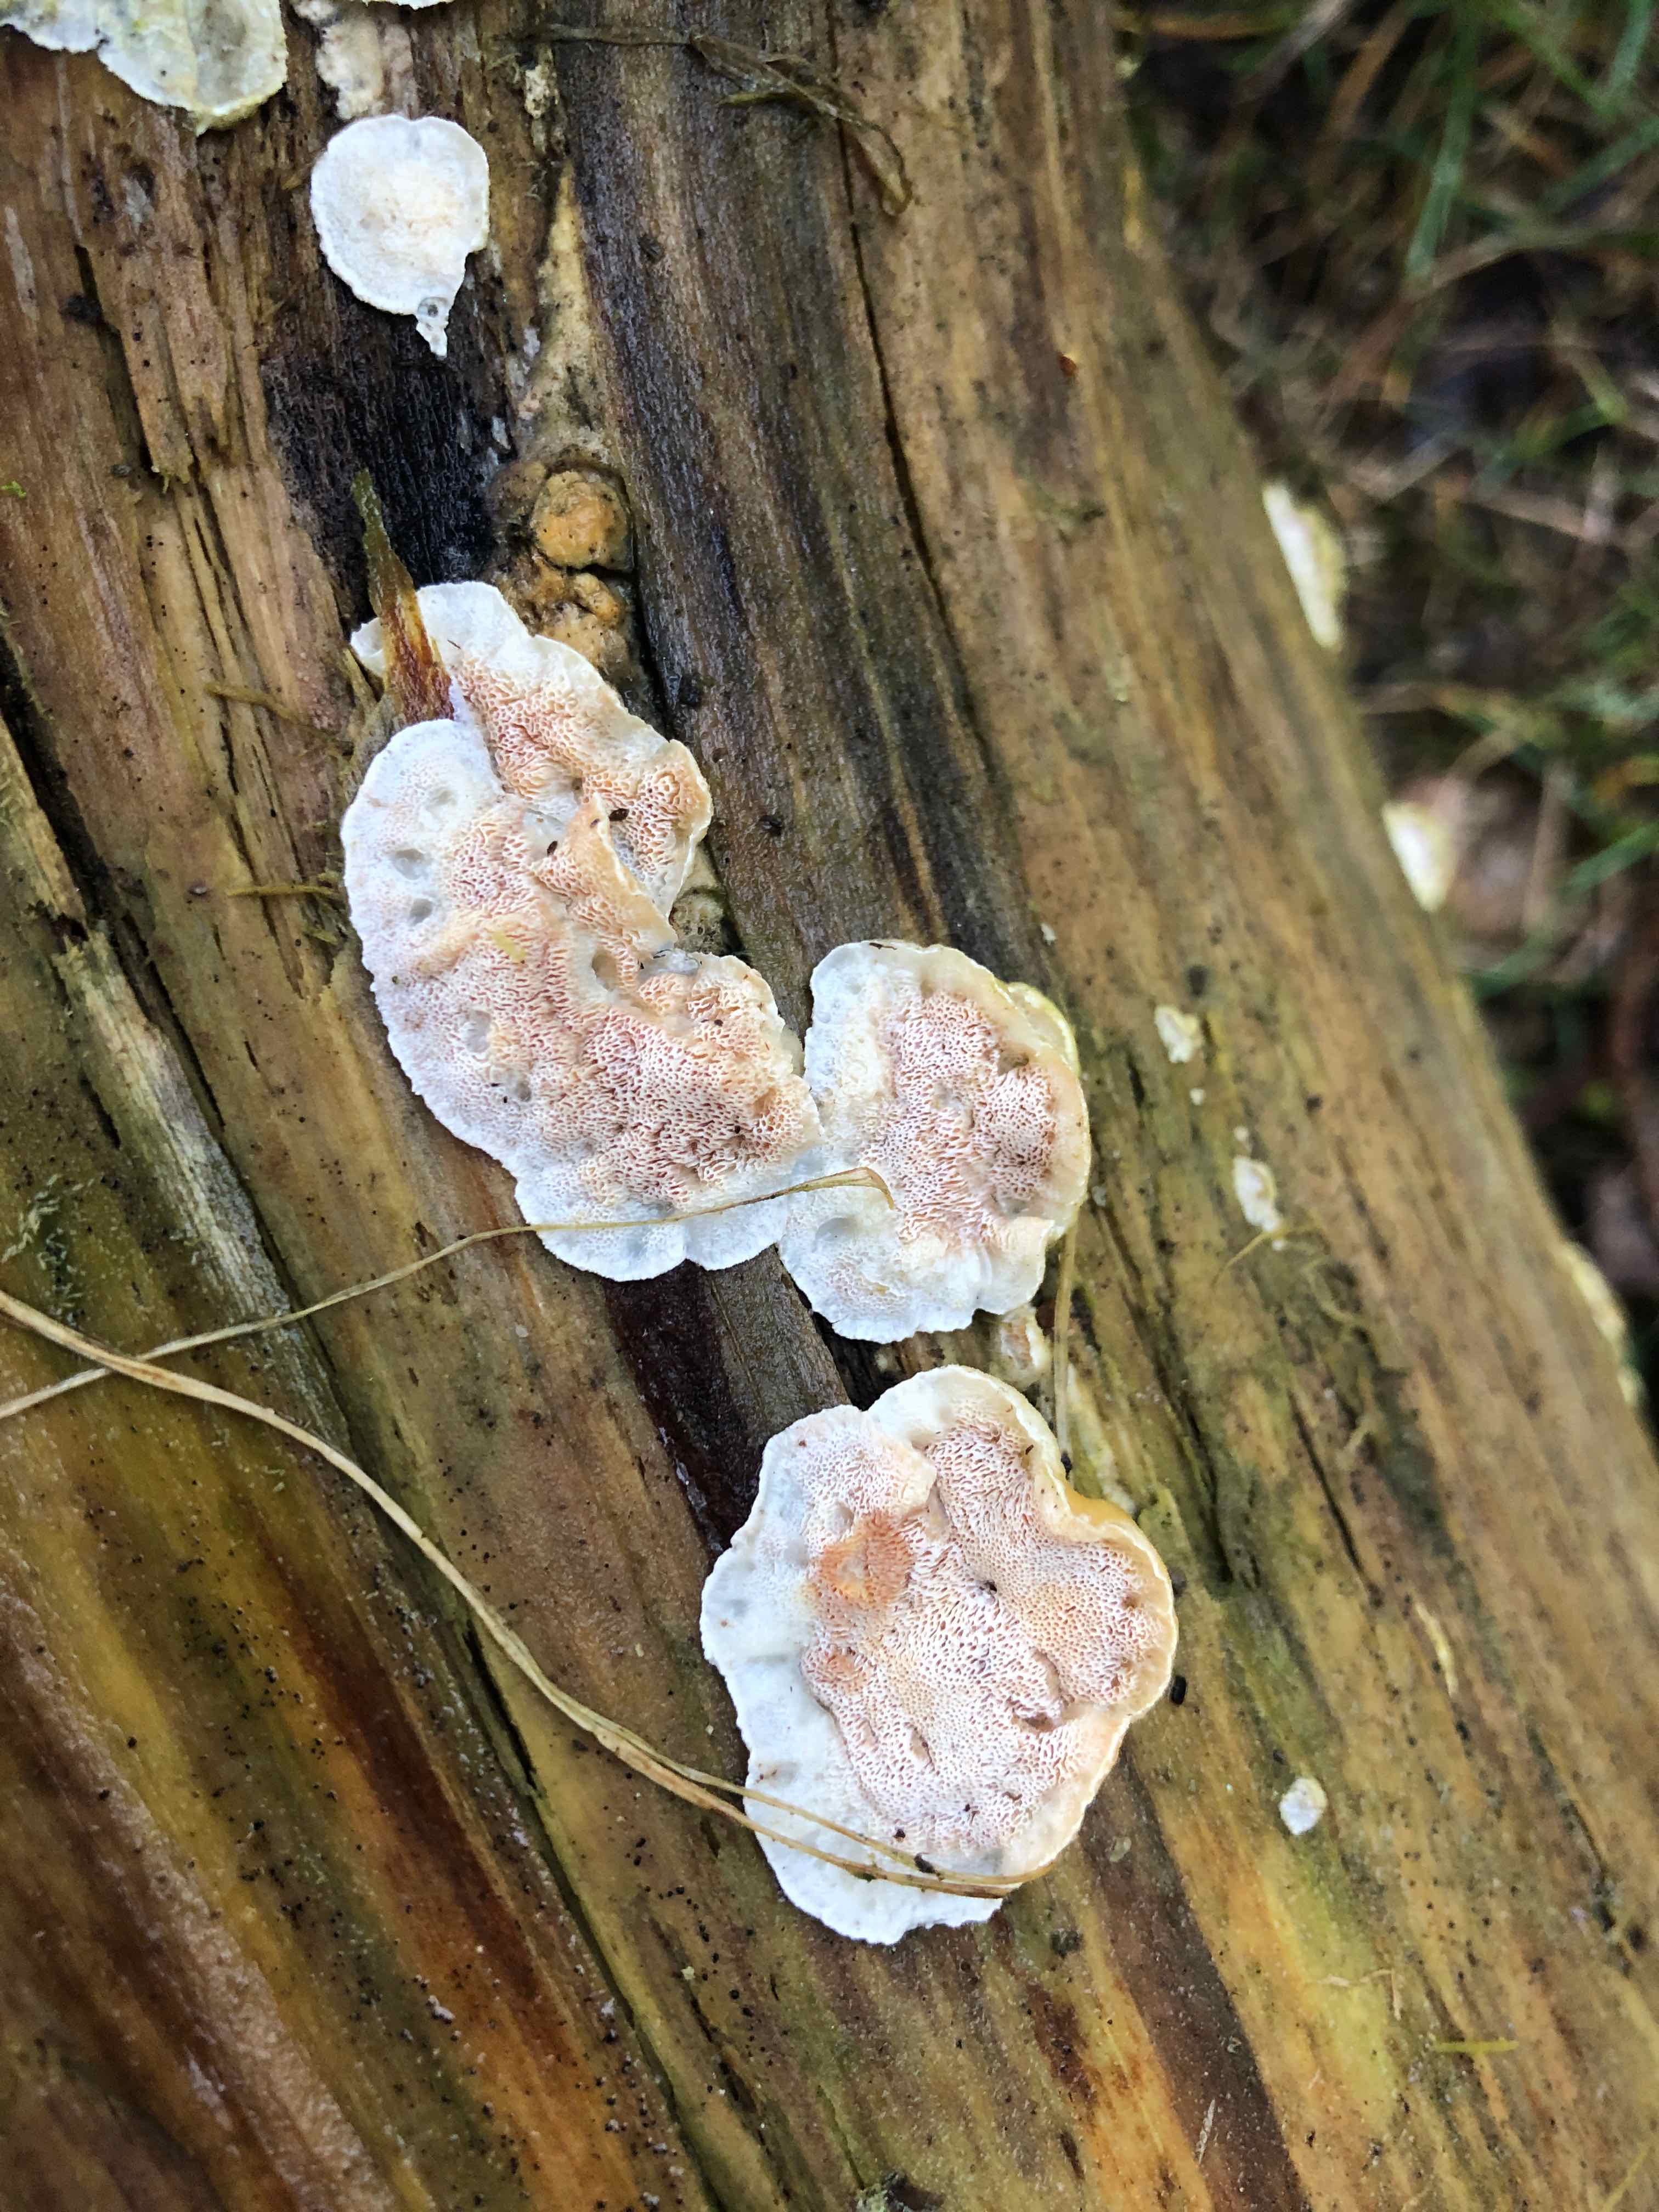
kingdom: Fungi
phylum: Basidiomycota
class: Agaricomycetes
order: Polyporales
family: Incrustoporiaceae
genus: Skeletocutis
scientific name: Skeletocutis amorpha
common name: orange krystalporesvamp
